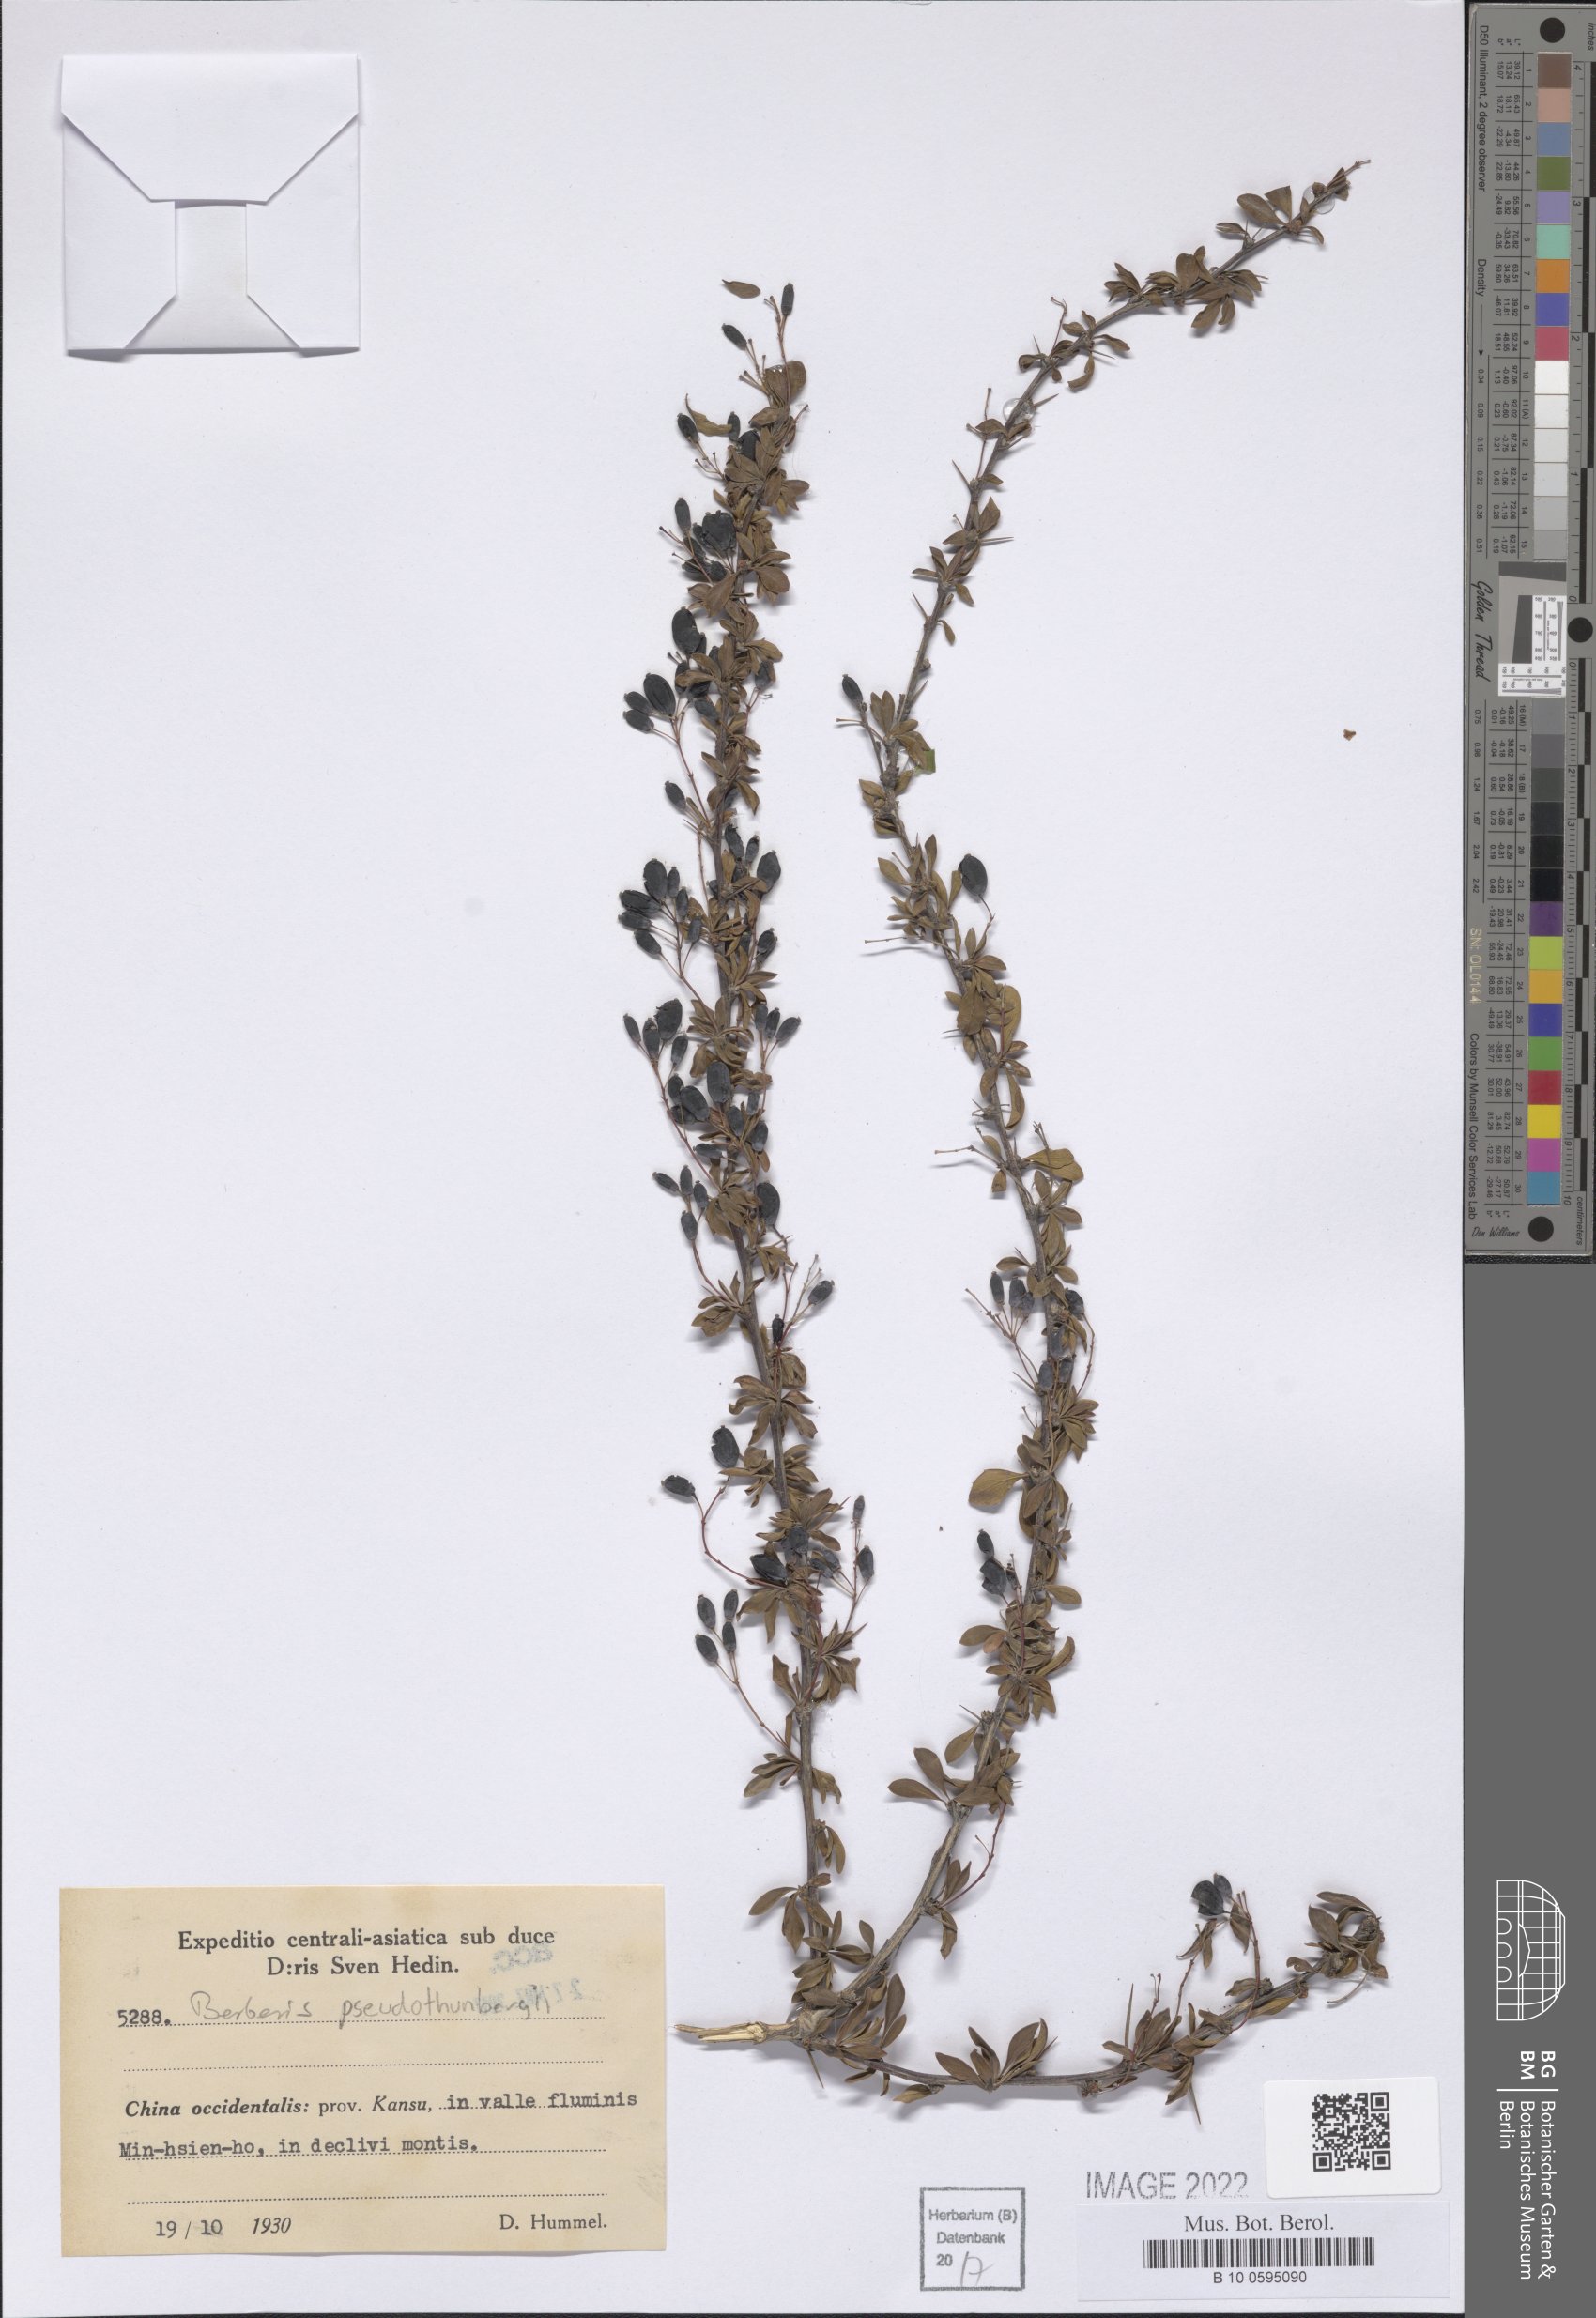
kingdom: Plantae
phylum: Tracheophyta
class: Magnoliopsida
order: Ranunculales
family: Berberidaceae
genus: Berberis
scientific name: Berberis pseudothunbergii
